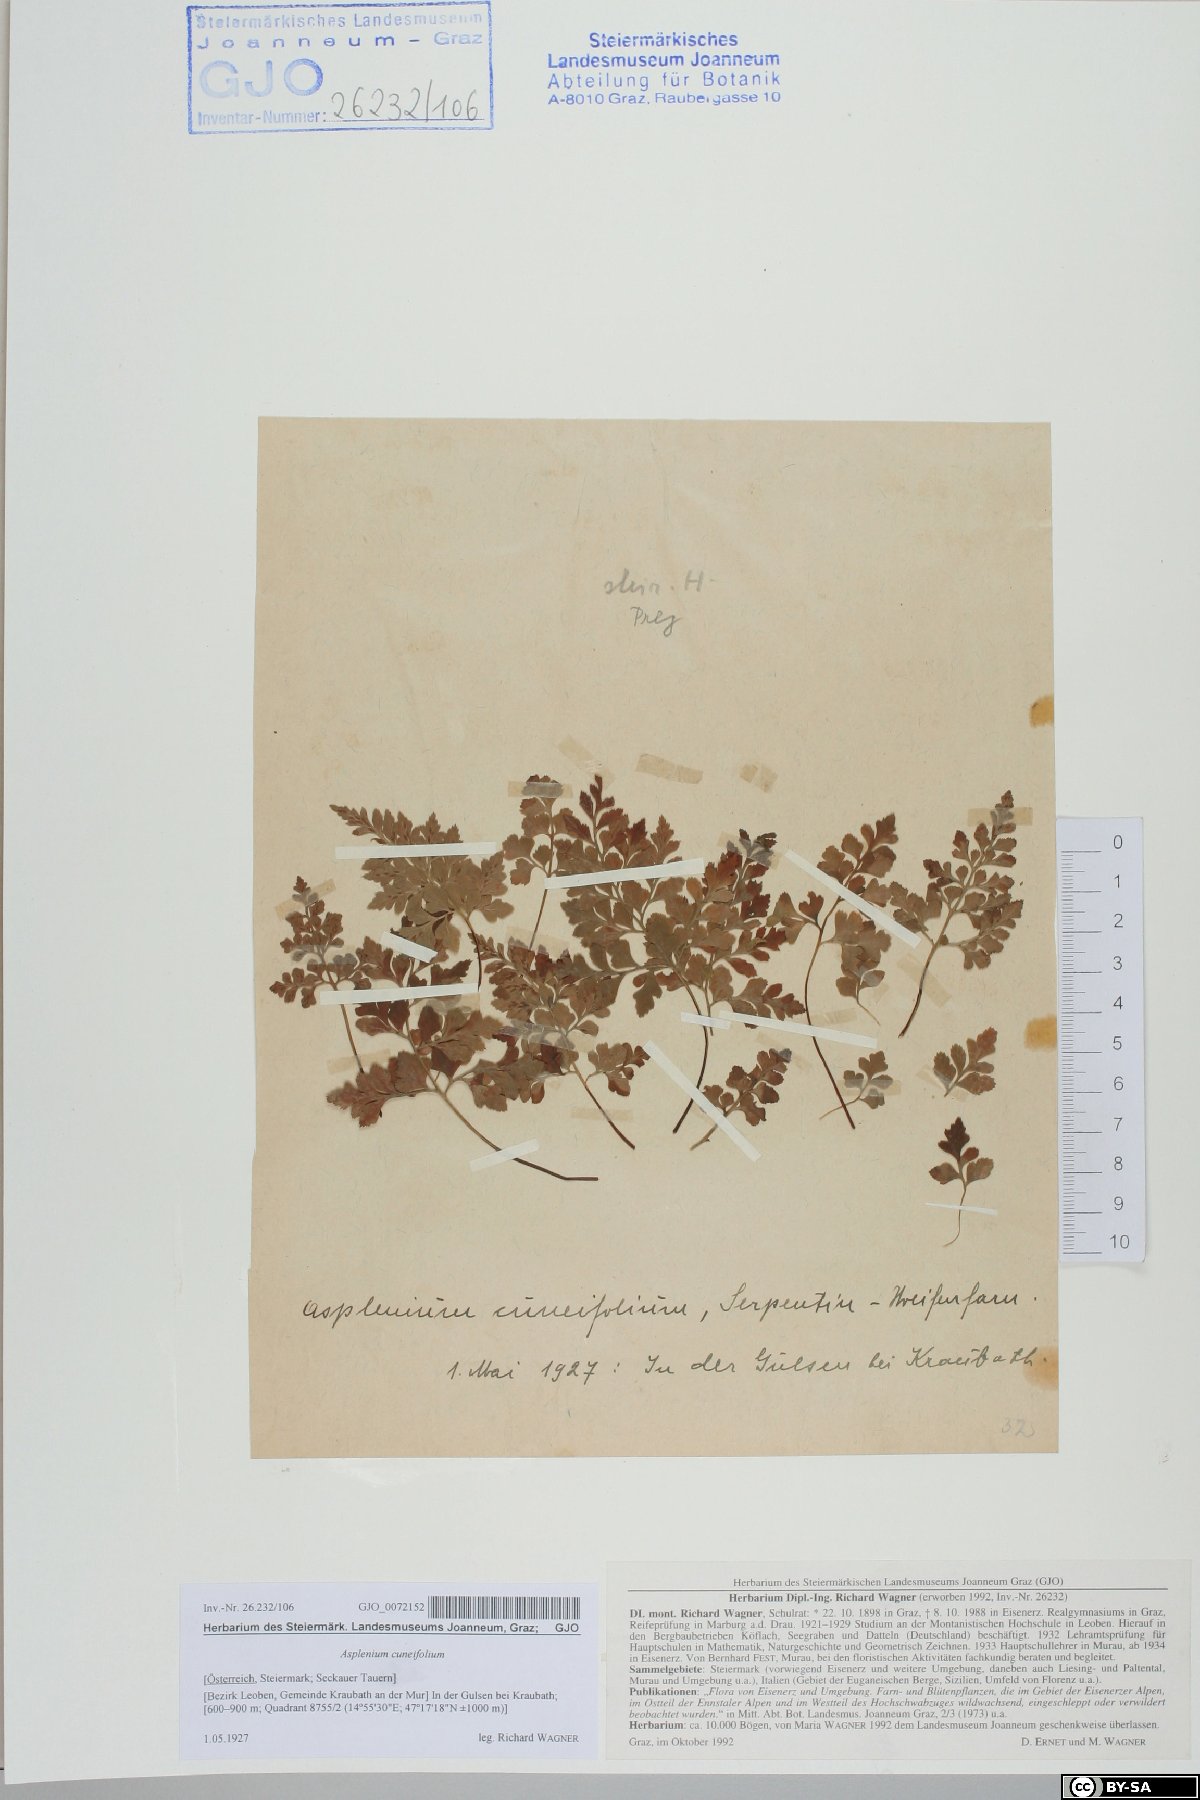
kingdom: Plantae
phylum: Tracheophyta
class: Polypodiopsida
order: Polypodiales
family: Aspleniaceae
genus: Asplenium
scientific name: Asplenium cuneifolium
